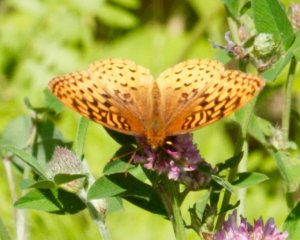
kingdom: Animalia
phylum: Arthropoda
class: Insecta
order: Lepidoptera
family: Nymphalidae
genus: Speyeria
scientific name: Speyeria cybele
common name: Great Spangled Fritillary
